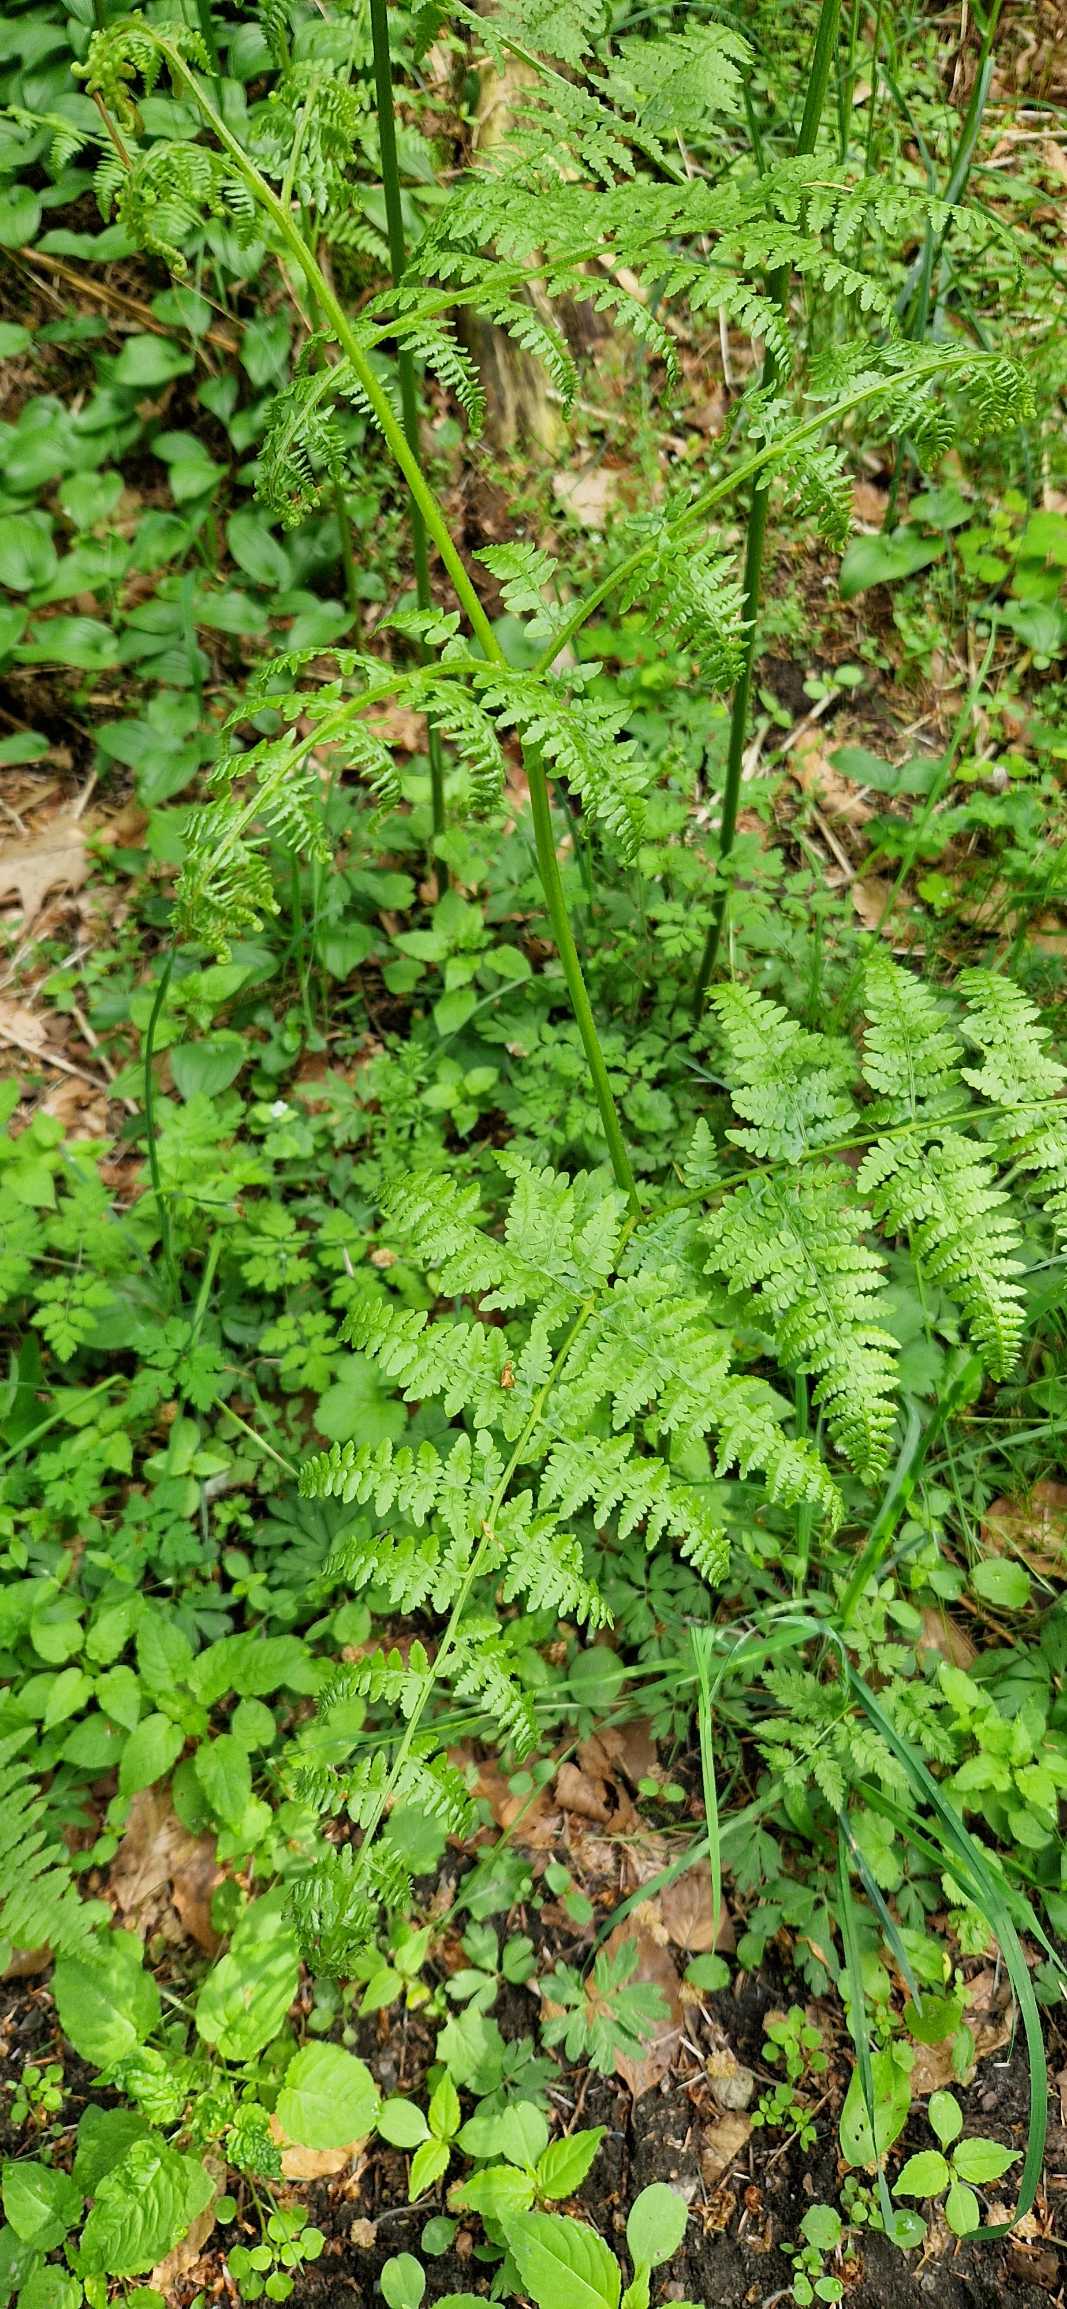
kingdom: Plantae
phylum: Tracheophyta
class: Polypodiopsida
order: Polypodiales
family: Dennstaedtiaceae
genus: Pteridium
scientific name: Pteridium aquilinum
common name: Ørnebregne
